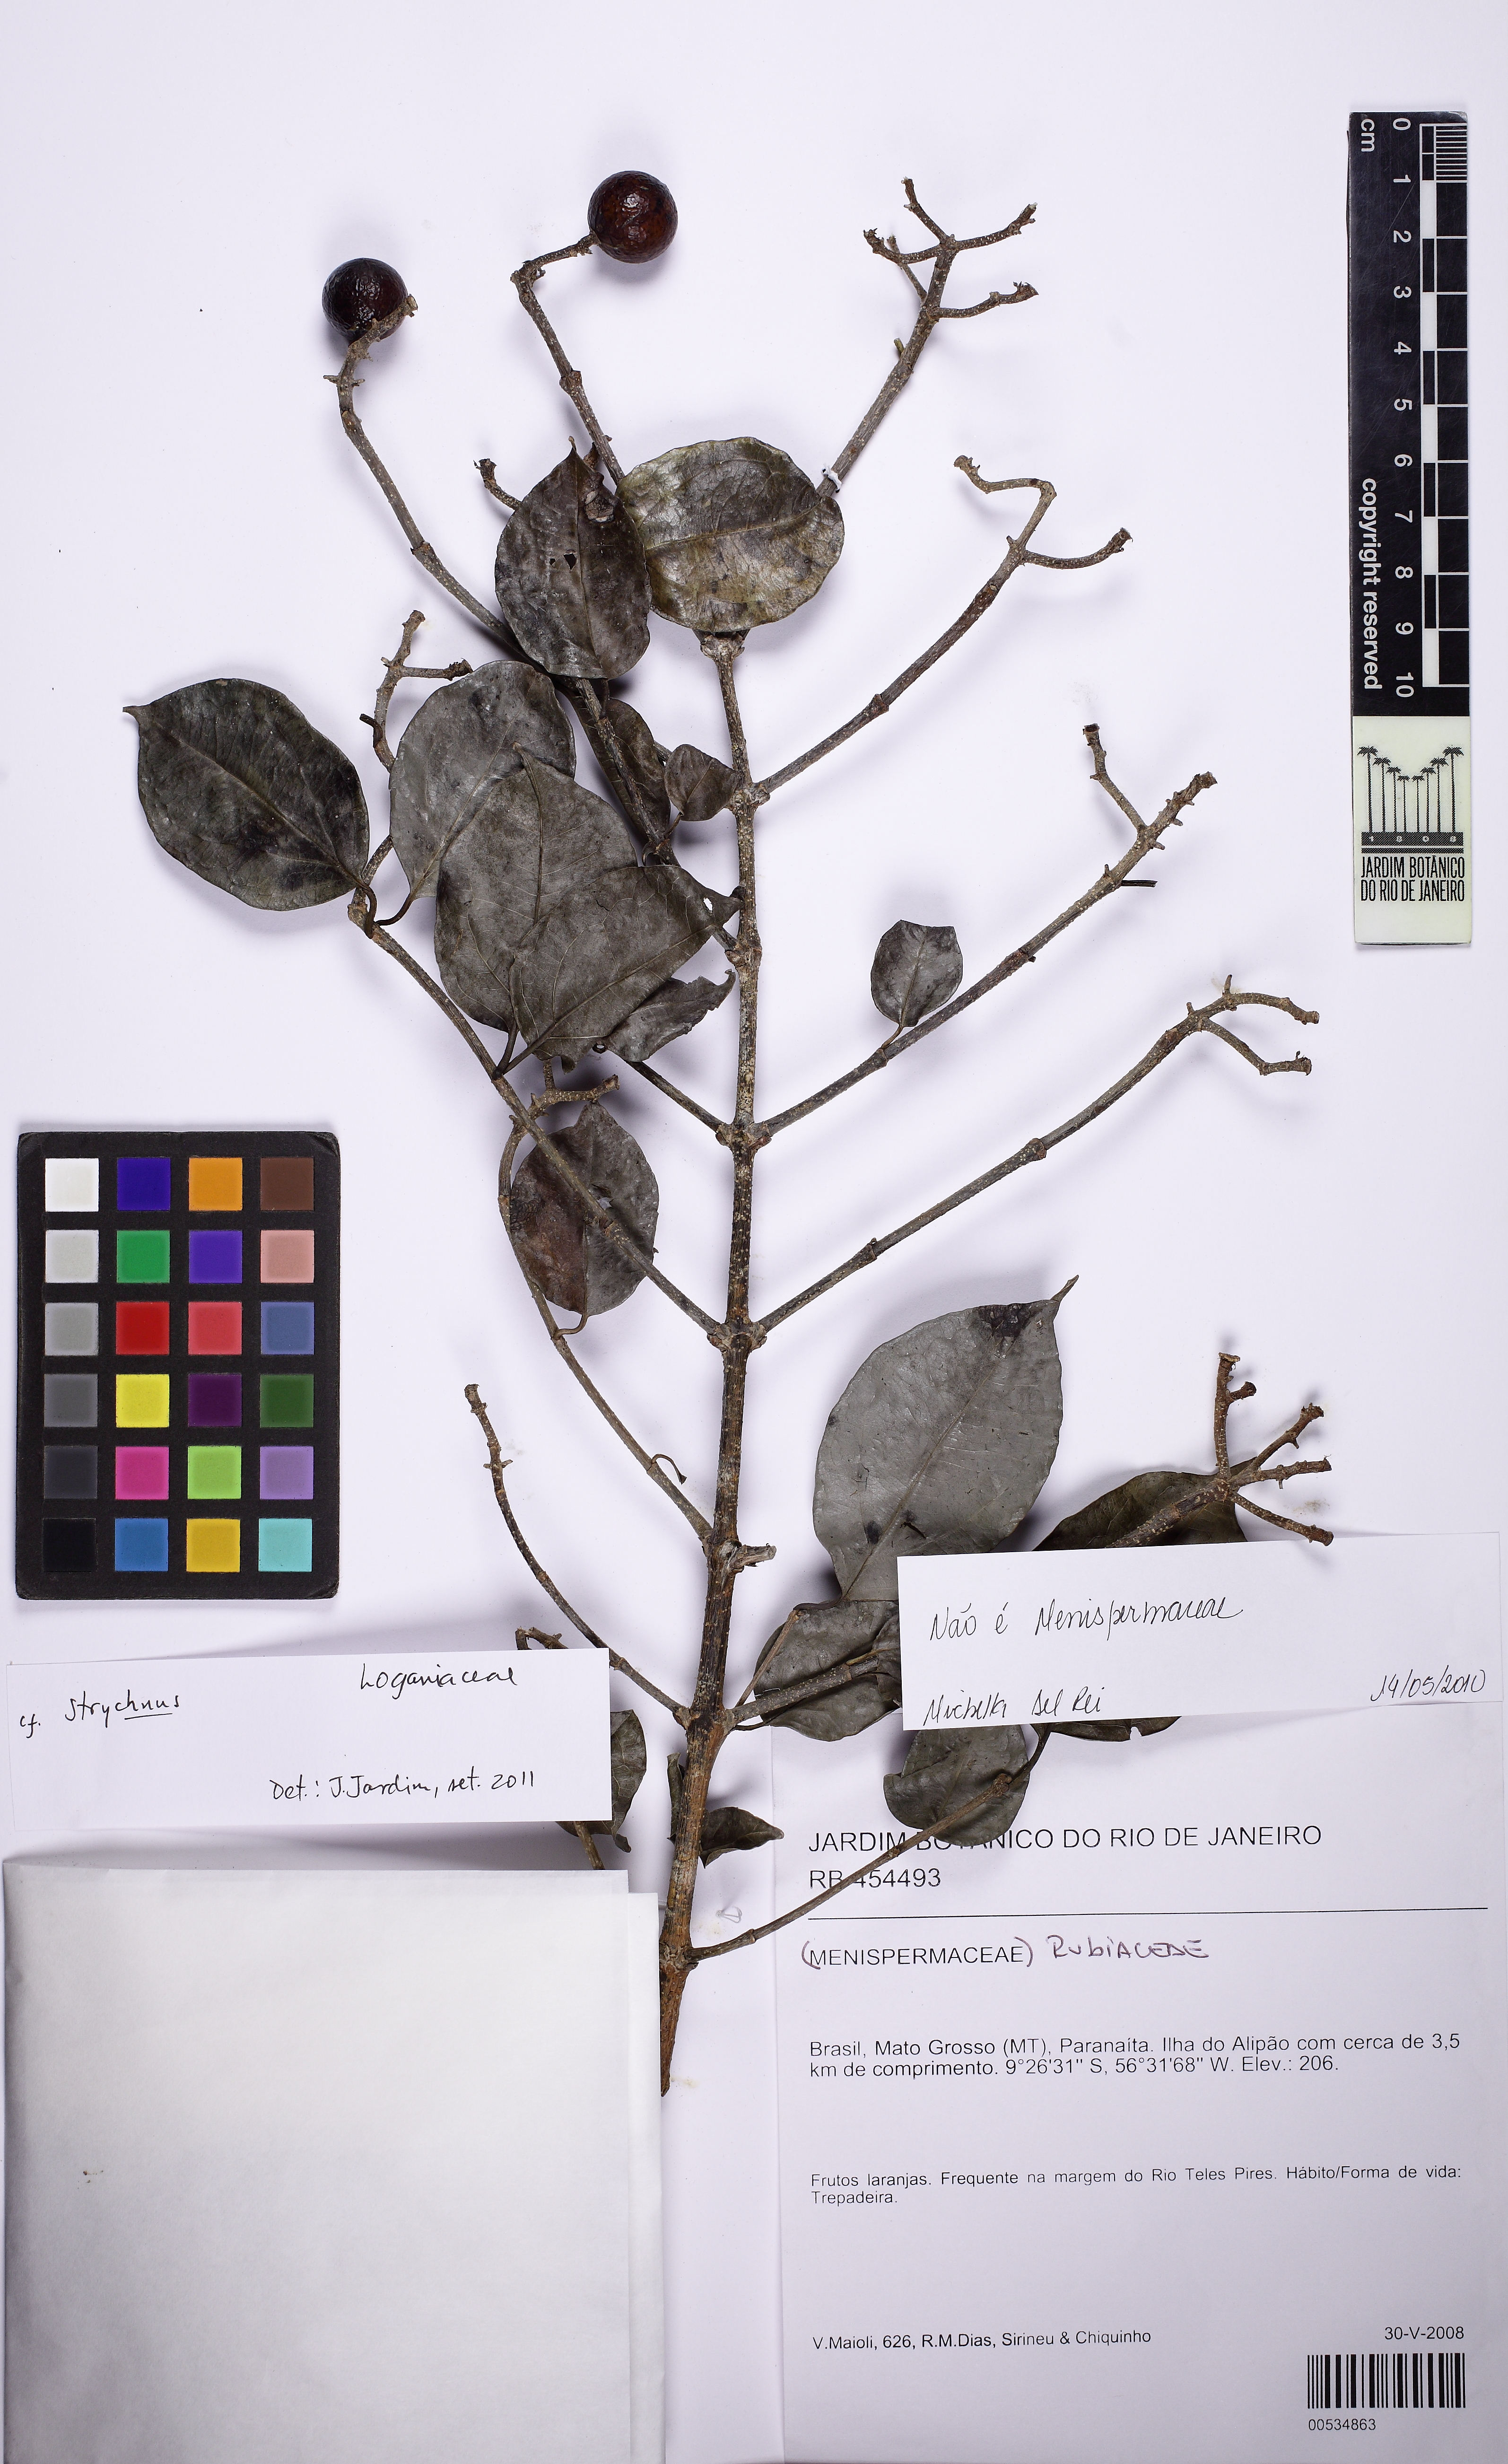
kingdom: Plantae
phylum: Tracheophyta
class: Magnoliopsida
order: Gentianales
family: Loganiaceae
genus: Strychnos
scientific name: Strychnos mattogrossensis
